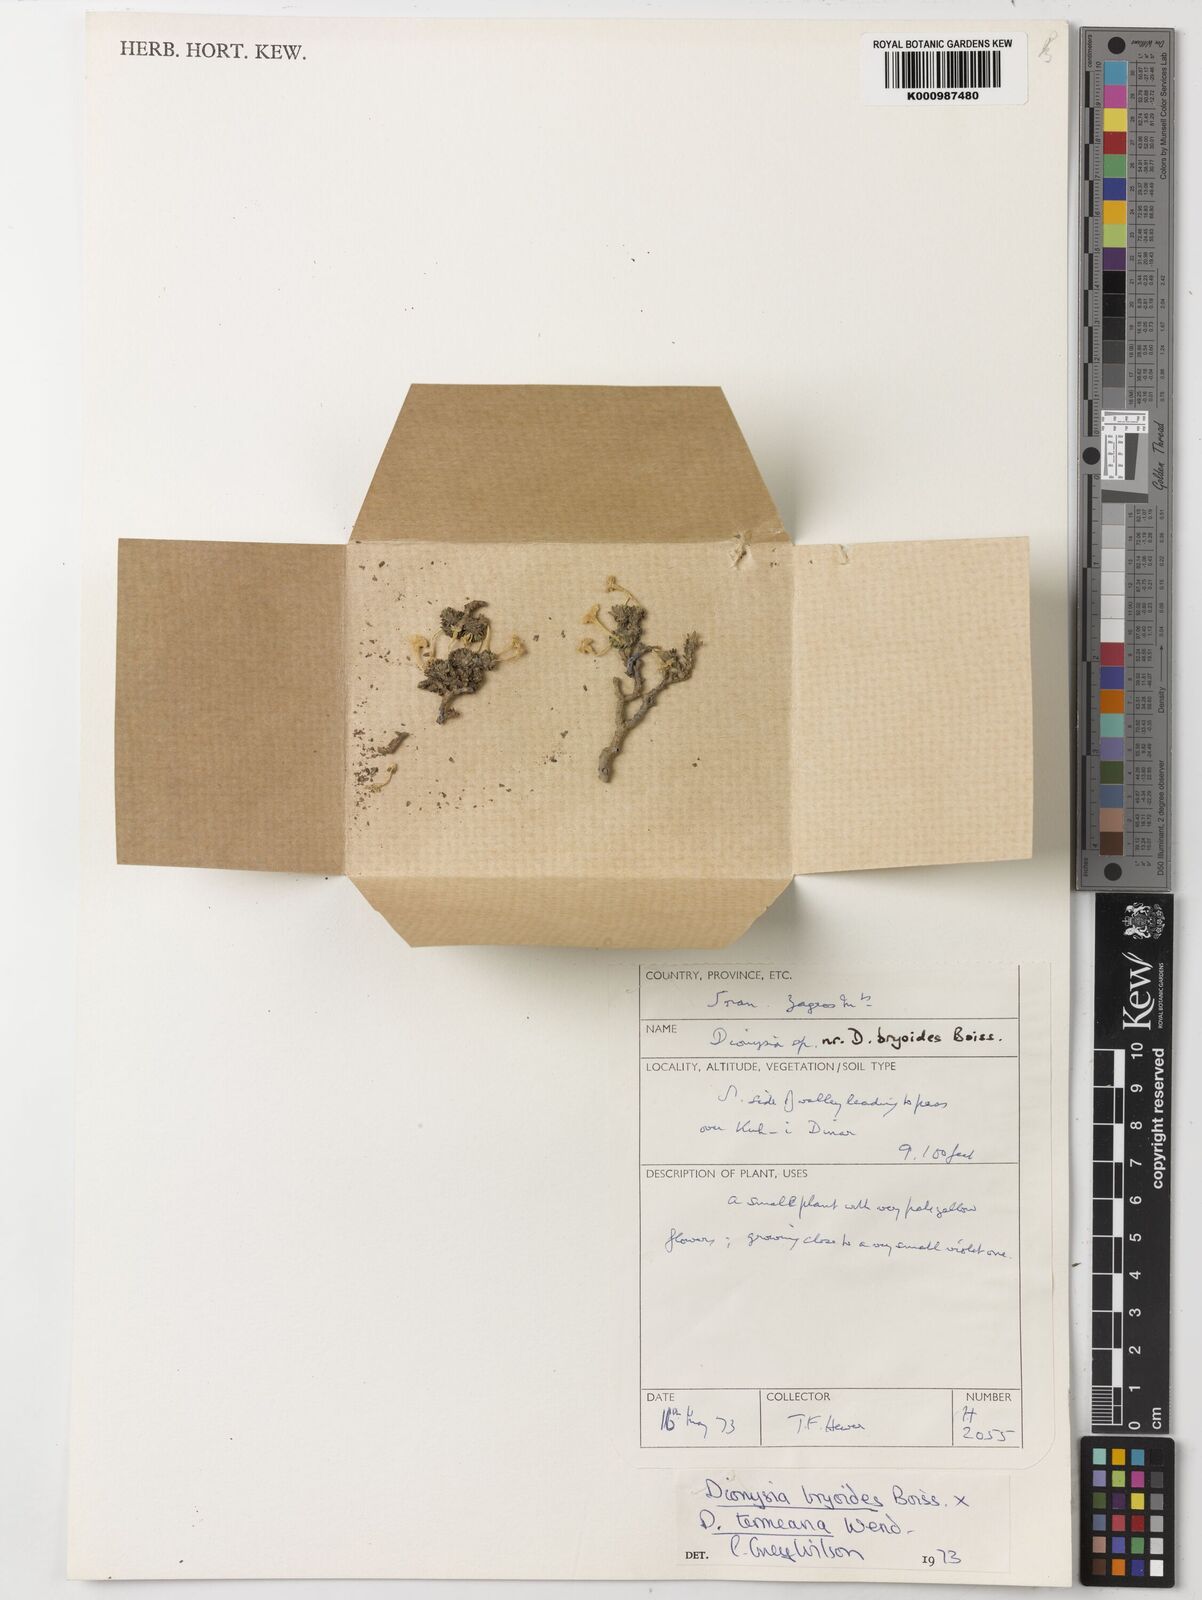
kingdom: Plantae
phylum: Tracheophyta
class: Magnoliopsida
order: Ericales
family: Primulaceae
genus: Dionysia
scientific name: Dionysia bryoides
